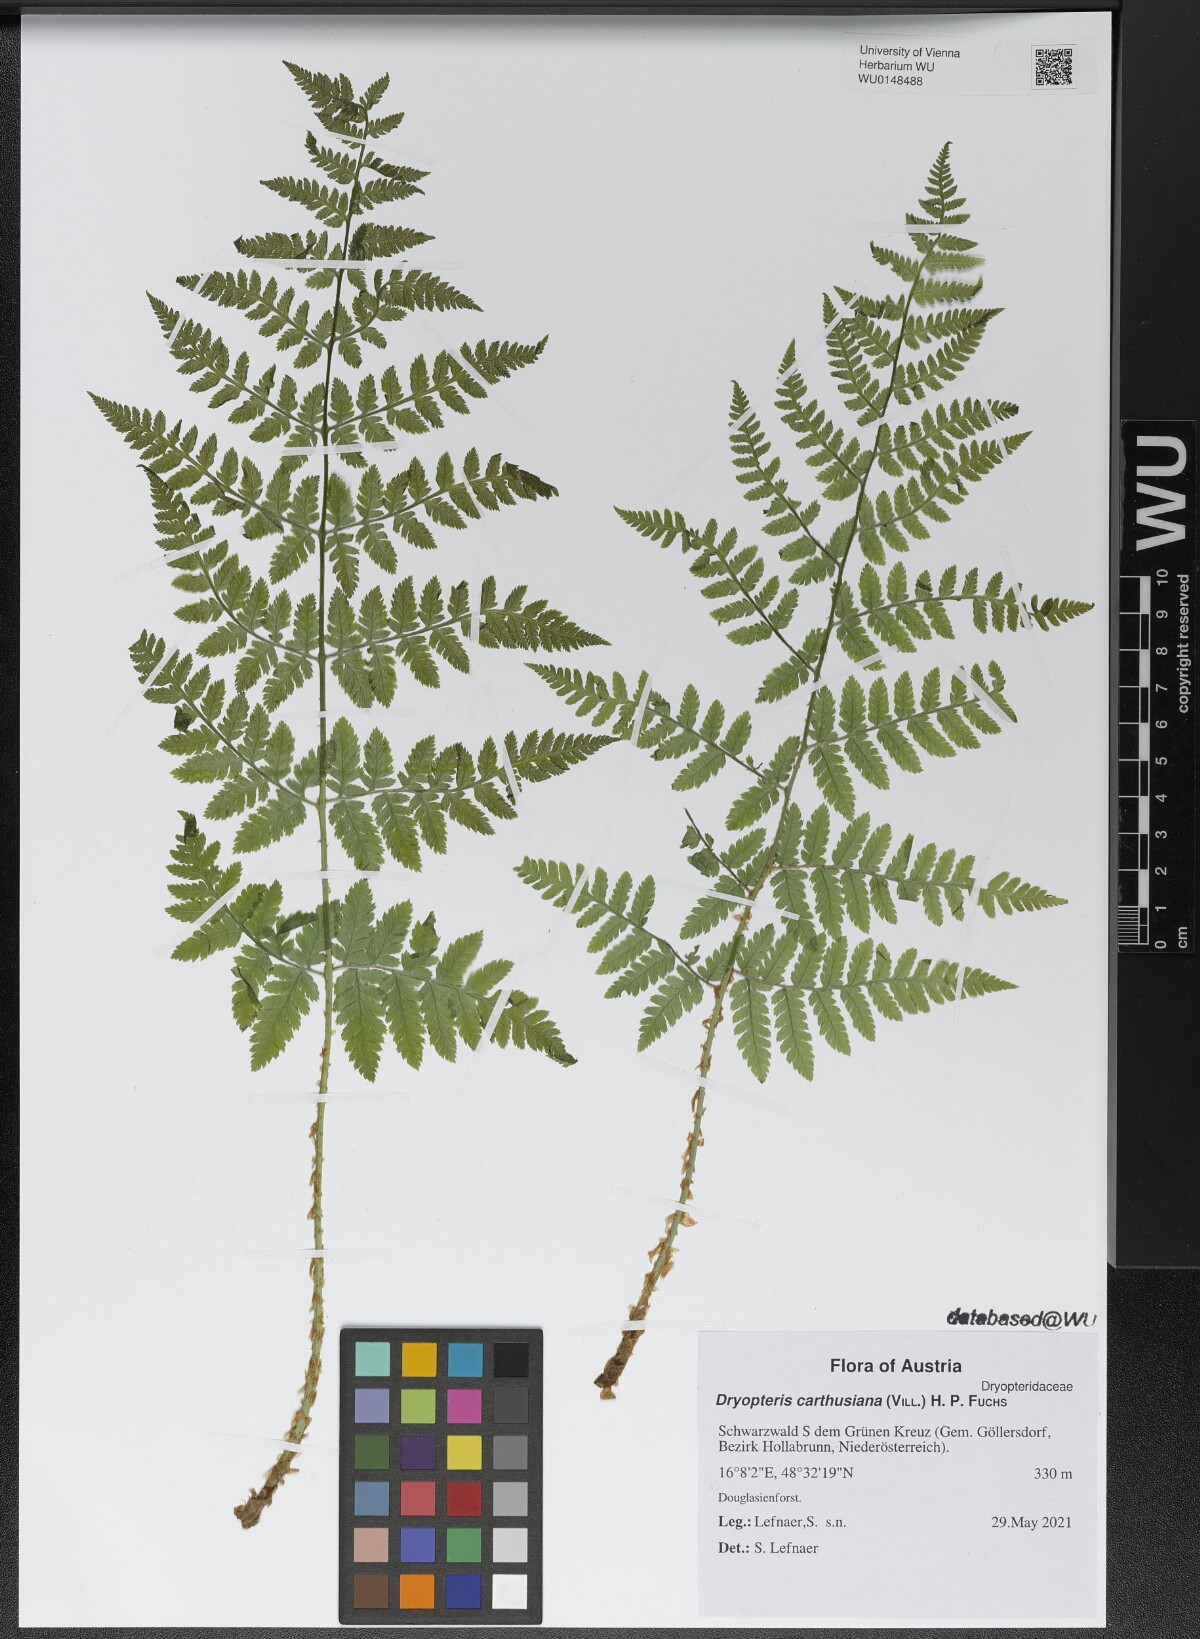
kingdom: Plantae
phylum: Tracheophyta
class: Polypodiopsida
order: Polypodiales
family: Dryopteridaceae
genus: Dryopteris
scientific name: Dryopteris carthusiana
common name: Narrow buckler-fern
